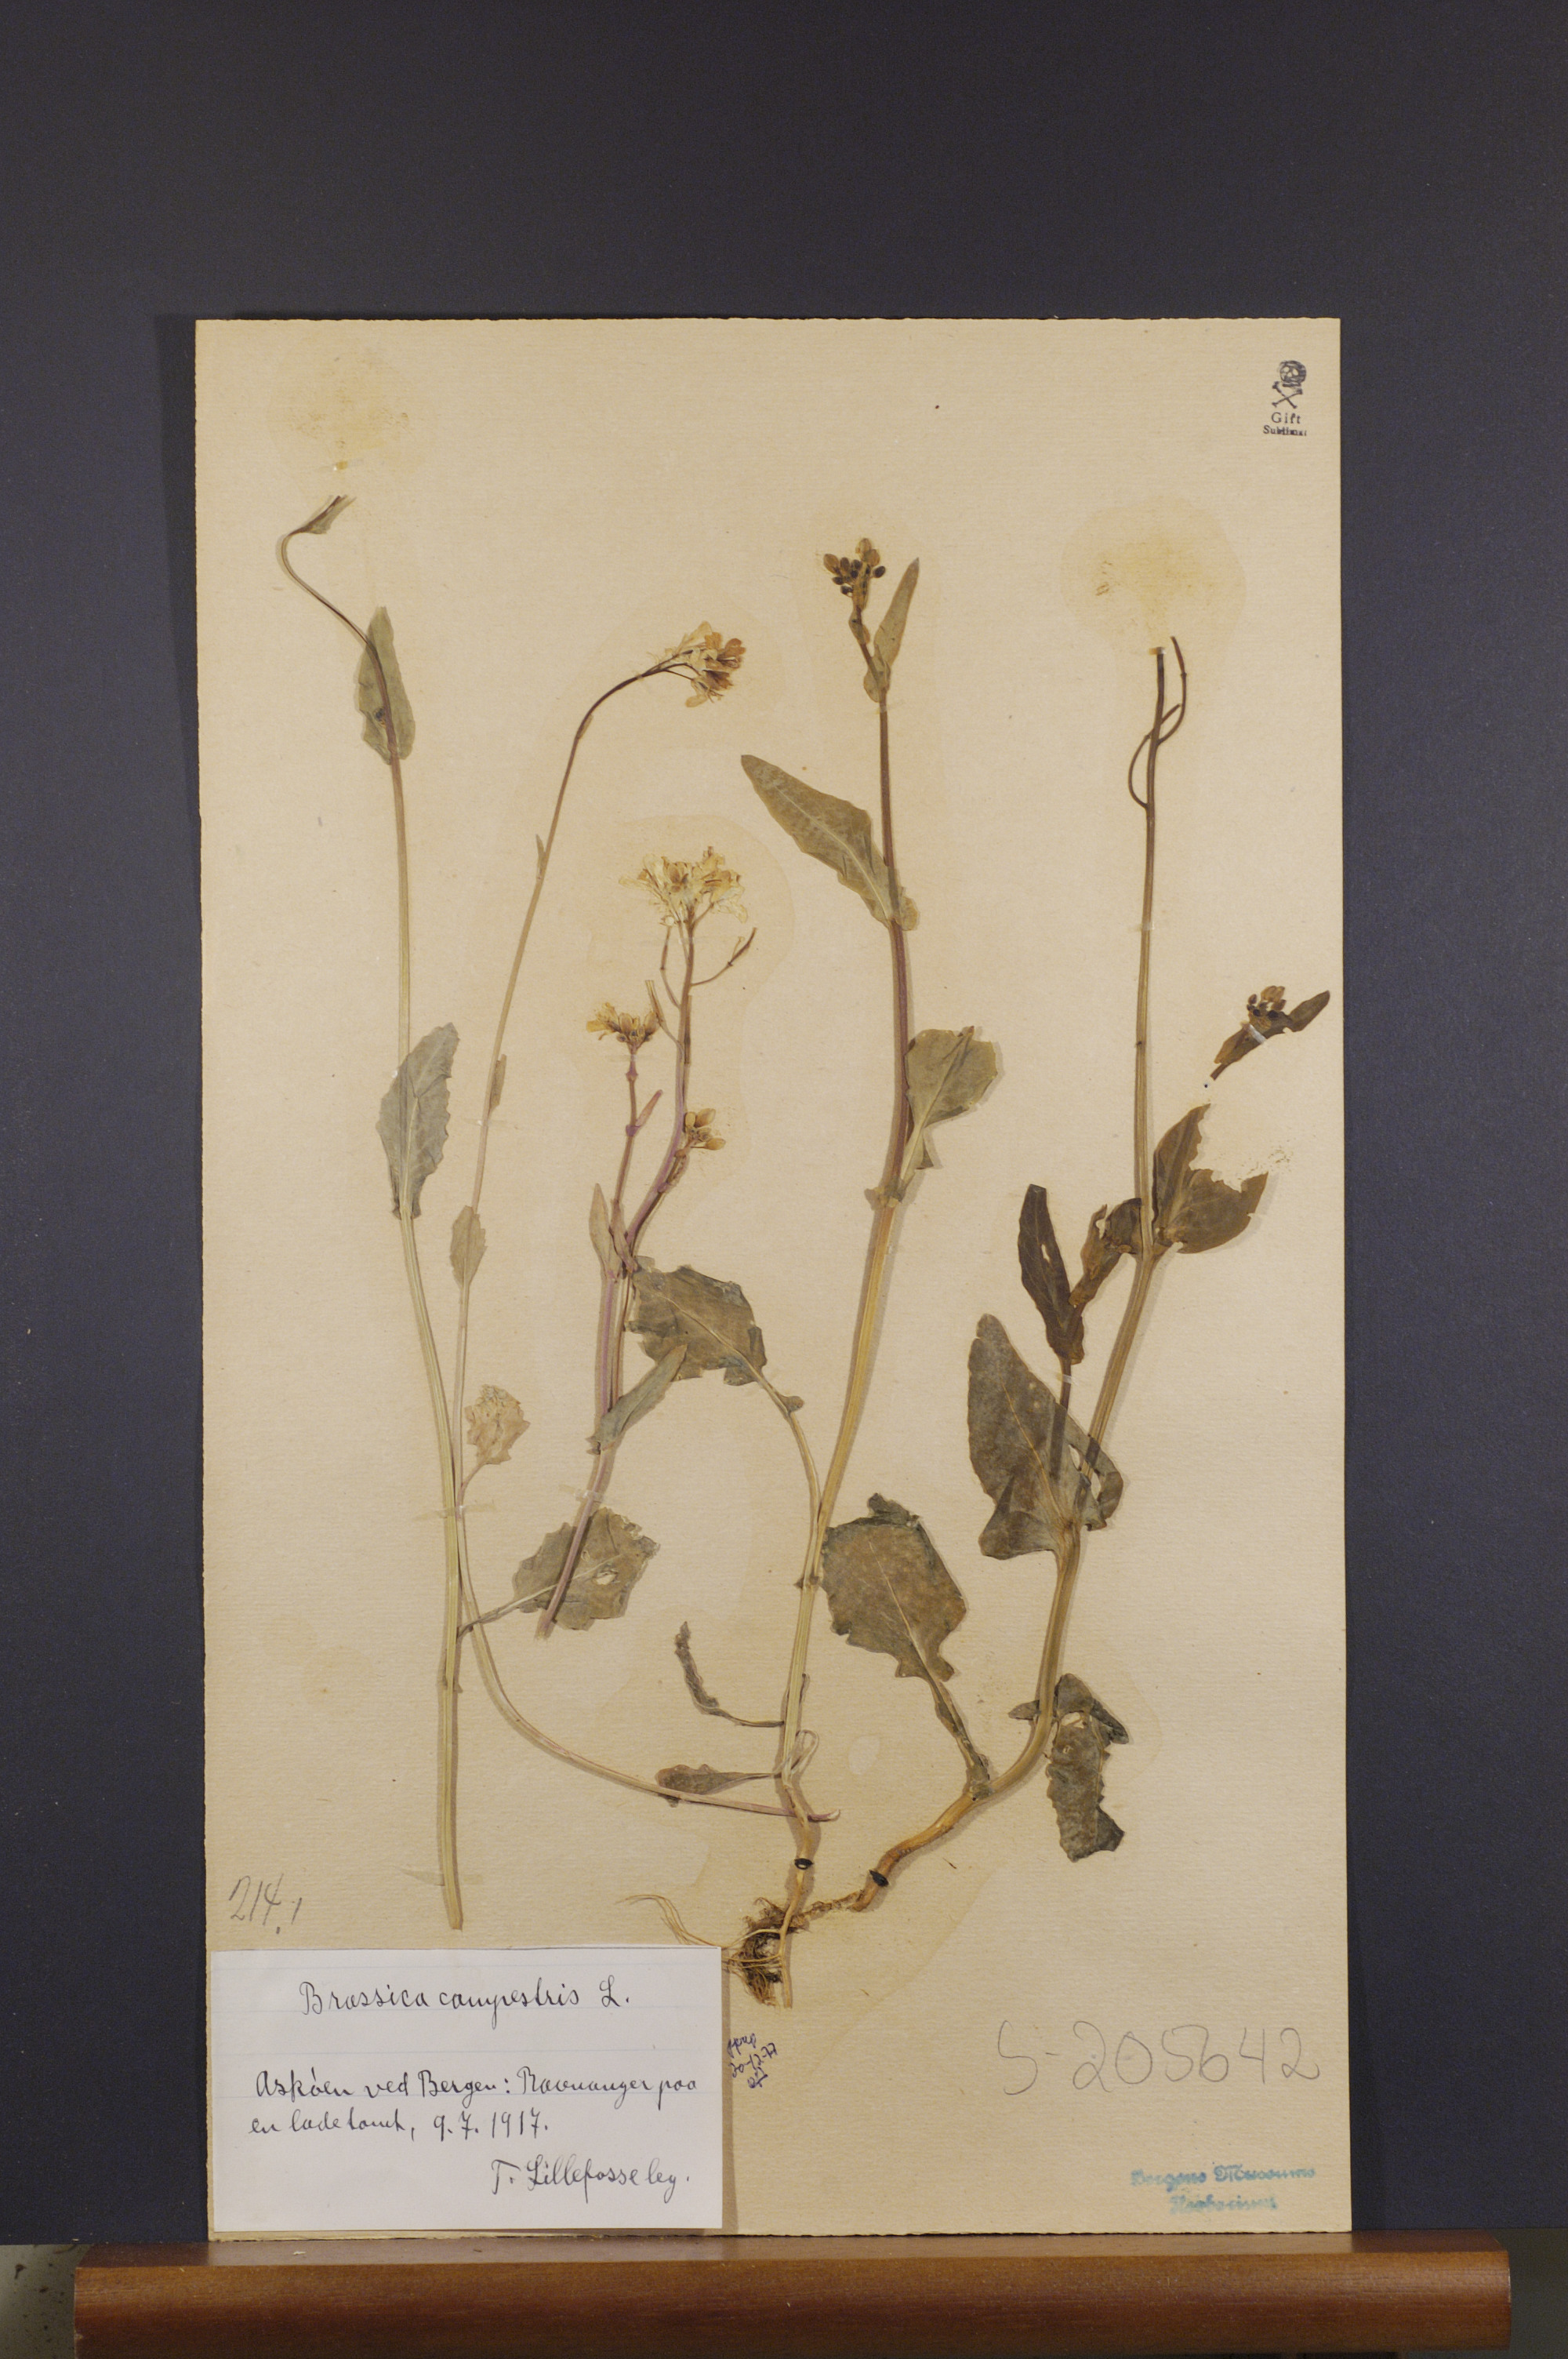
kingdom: Plantae
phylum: Tracheophyta
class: Magnoliopsida
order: Brassicales
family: Brassicaceae
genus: Brassica
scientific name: Brassica rapa
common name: Field mustard
